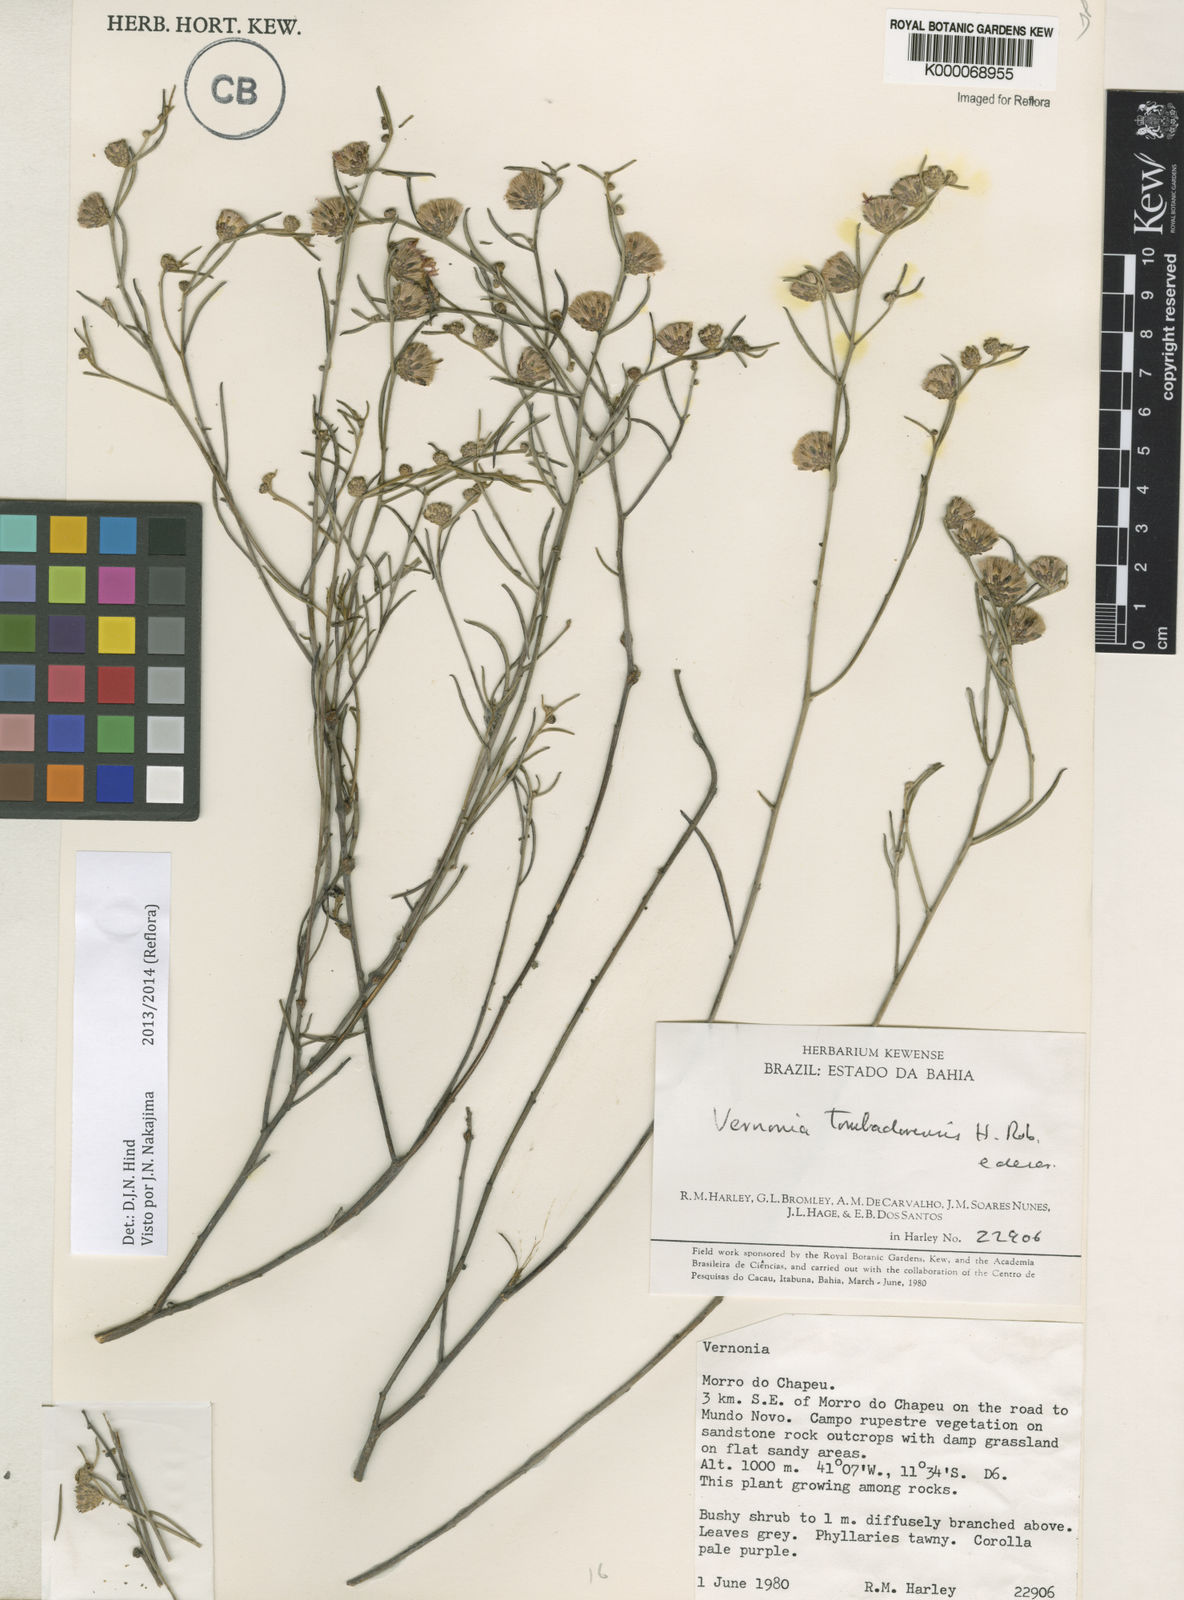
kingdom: Plantae
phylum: Tracheophyta
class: Magnoliopsida
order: Asterales
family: Asteraceae
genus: Lepidaploa
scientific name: Lepidaploa tombadorensis
